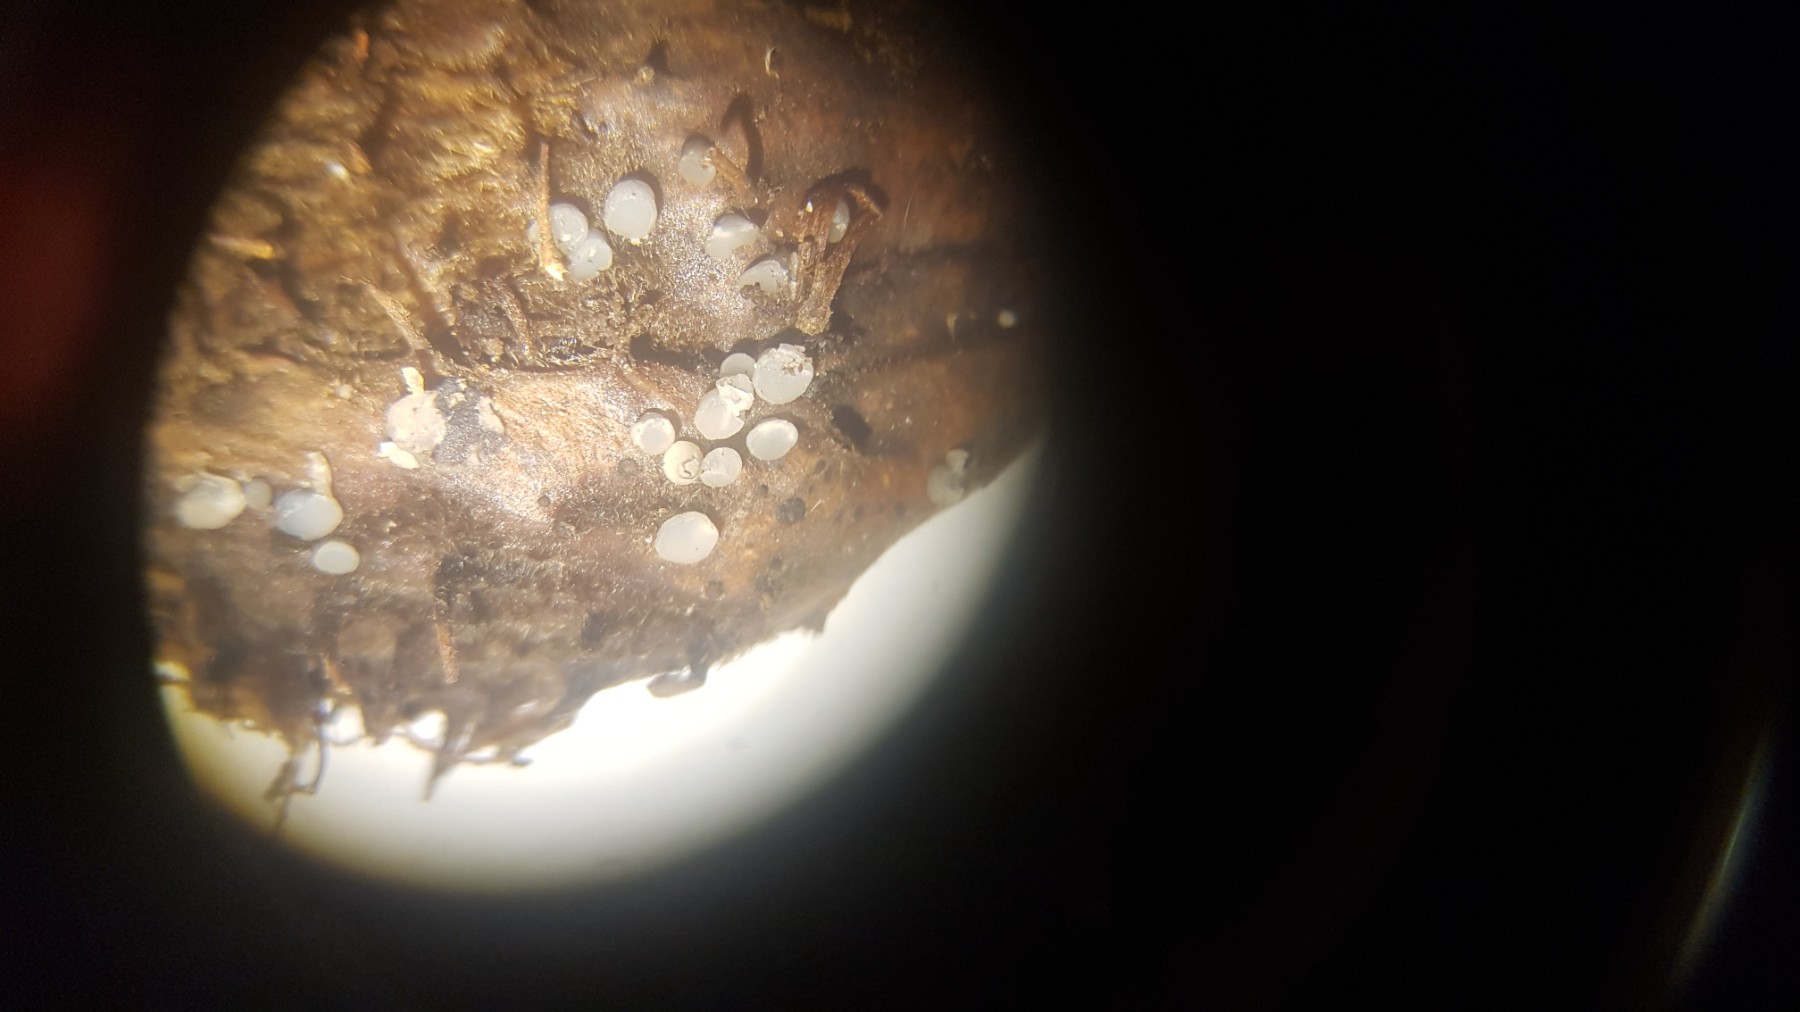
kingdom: Fungi
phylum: Ascomycota
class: Leotiomycetes
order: Helotiales
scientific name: Helotiales
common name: stilkskiveordenen
